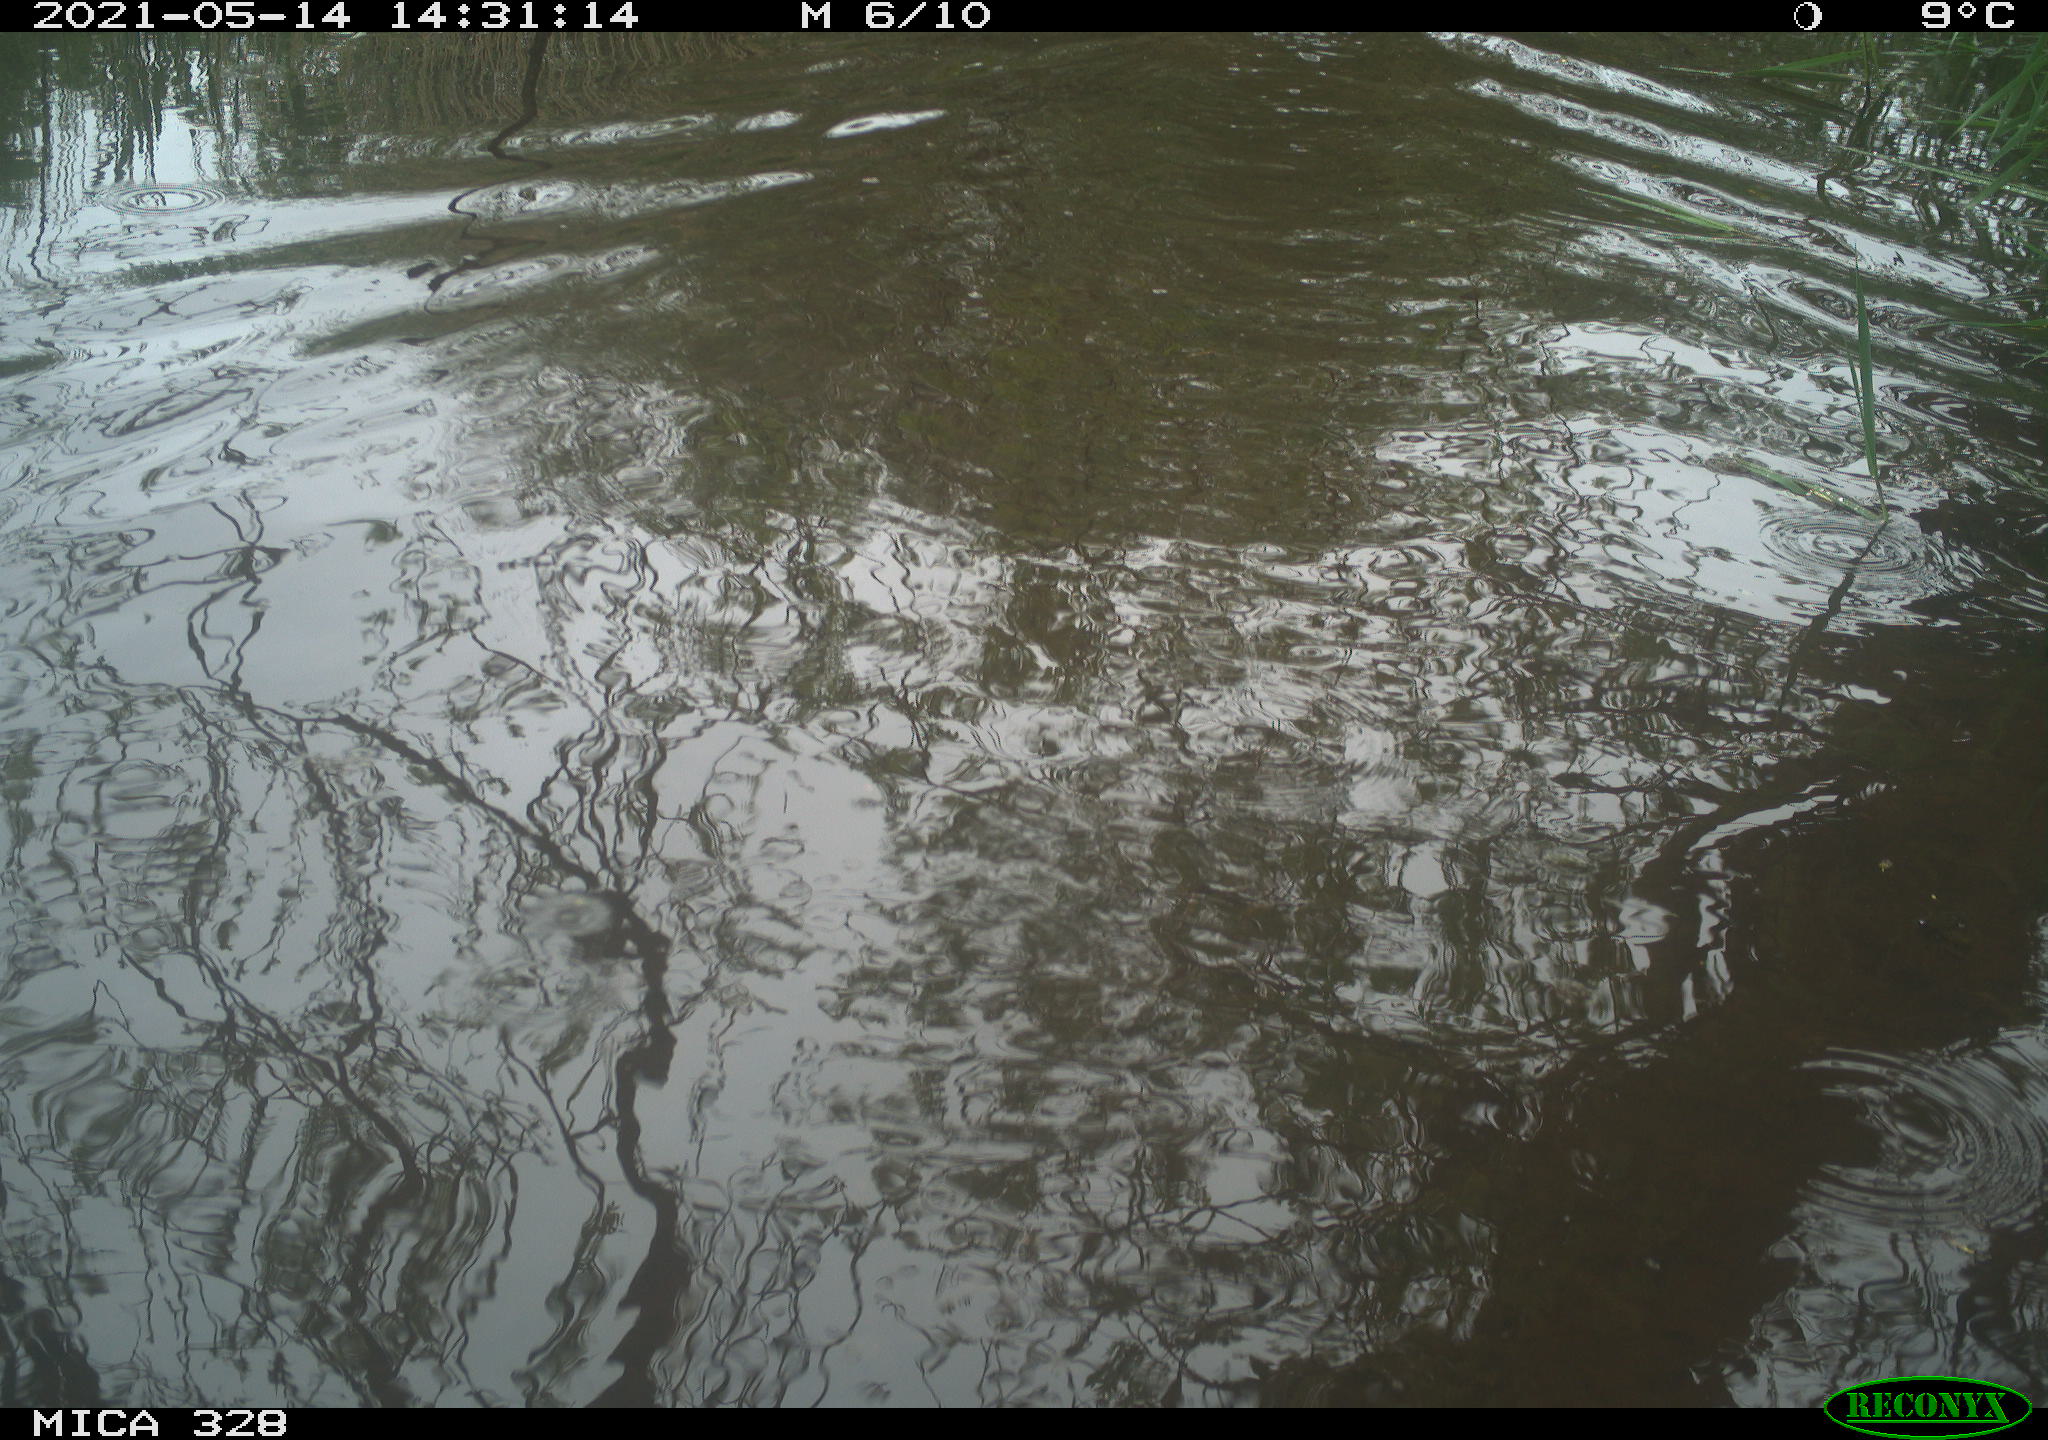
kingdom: Animalia
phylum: Chordata
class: Mammalia
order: Rodentia
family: Cricetidae
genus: Ondatra
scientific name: Ondatra zibethicus
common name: Muskrat
